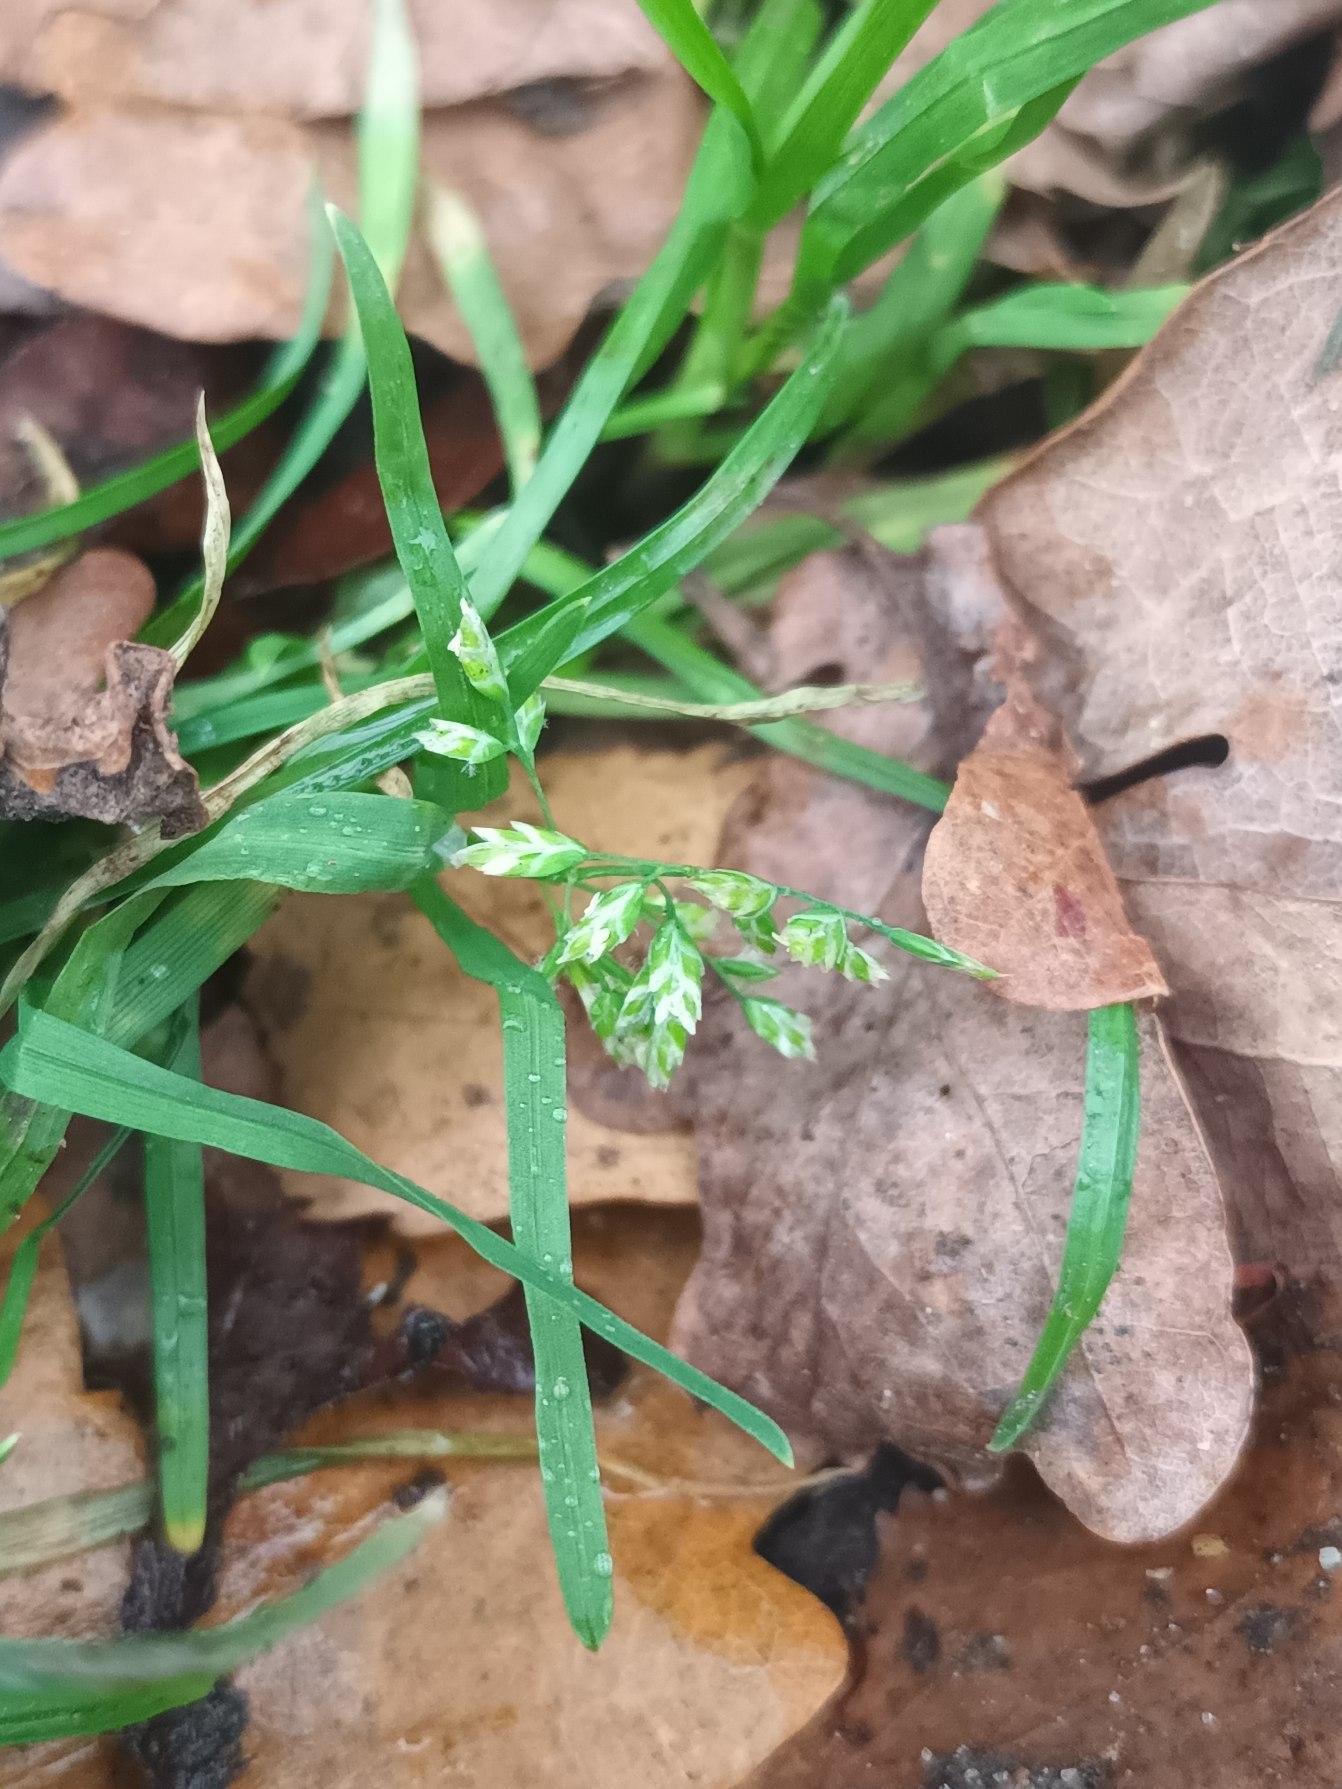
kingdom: Plantae
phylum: Tracheophyta
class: Liliopsida
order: Poales
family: Poaceae
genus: Poa
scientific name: Poa annua
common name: Enårig rapgræs
